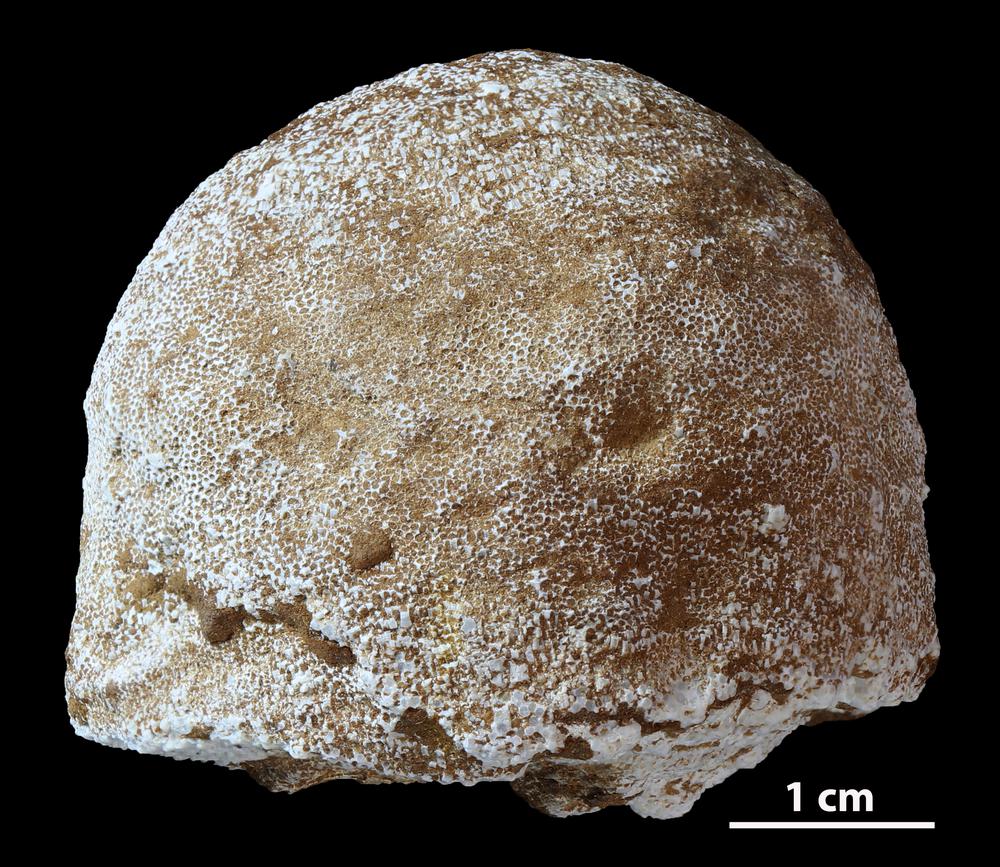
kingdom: Animalia
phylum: Bryozoa
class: Stenolaemata
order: Trepostomatida
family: Diplotrypidae
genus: Diplotrypa
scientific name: Diplotrypa petropolitana
